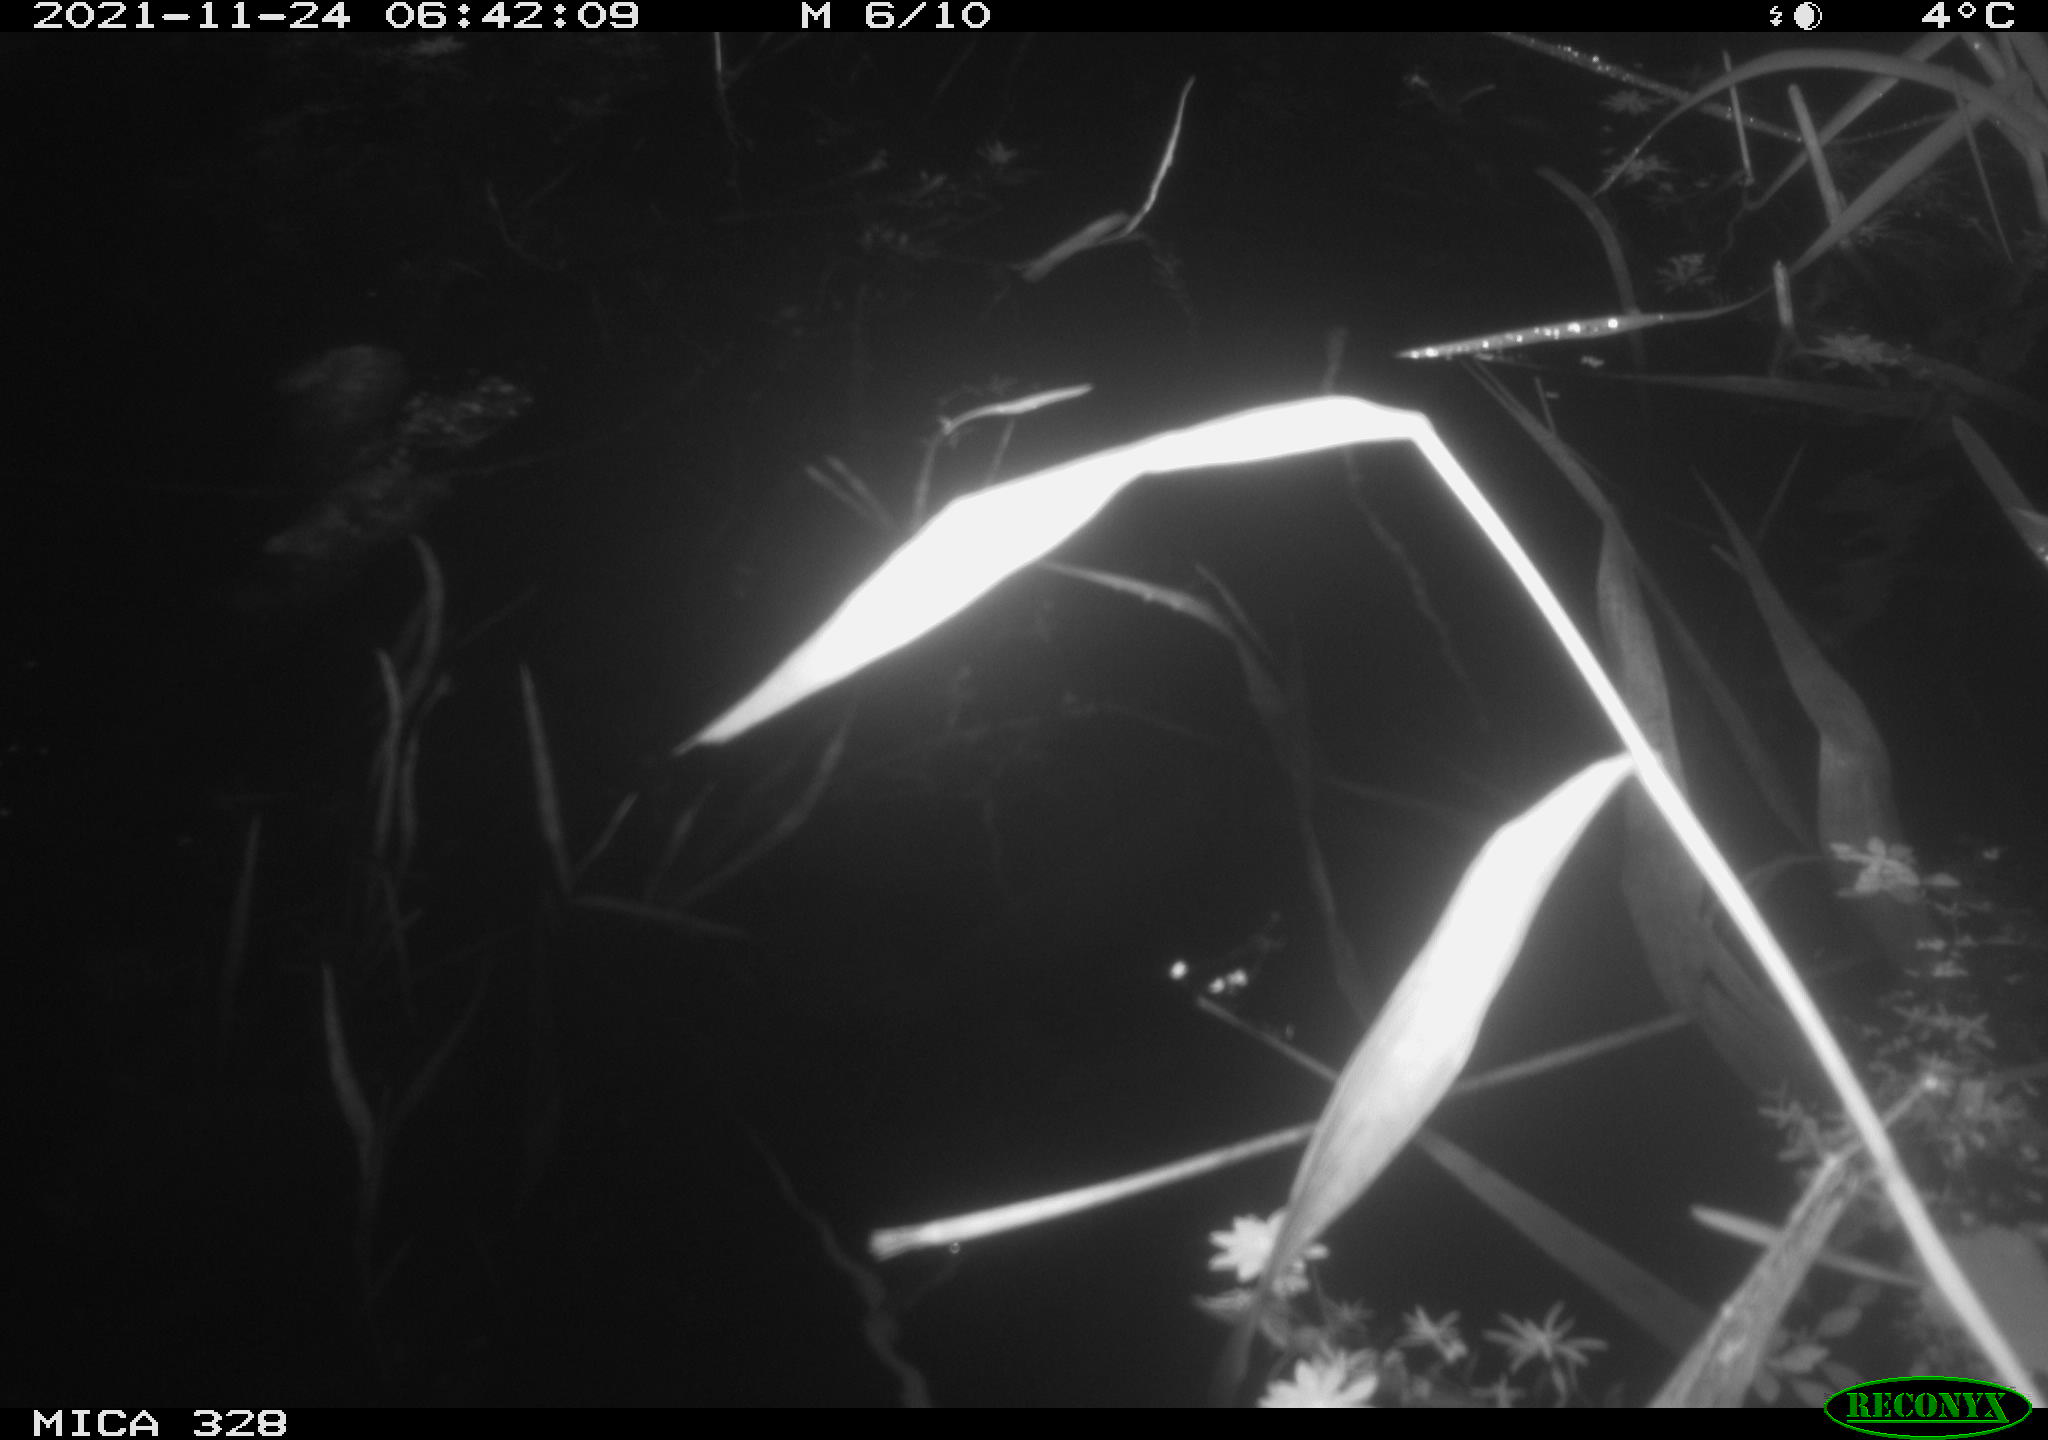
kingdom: Animalia
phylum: Chordata
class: Mammalia
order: Rodentia
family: Cricetidae
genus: Ondatra
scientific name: Ondatra zibethicus
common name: Muskrat
